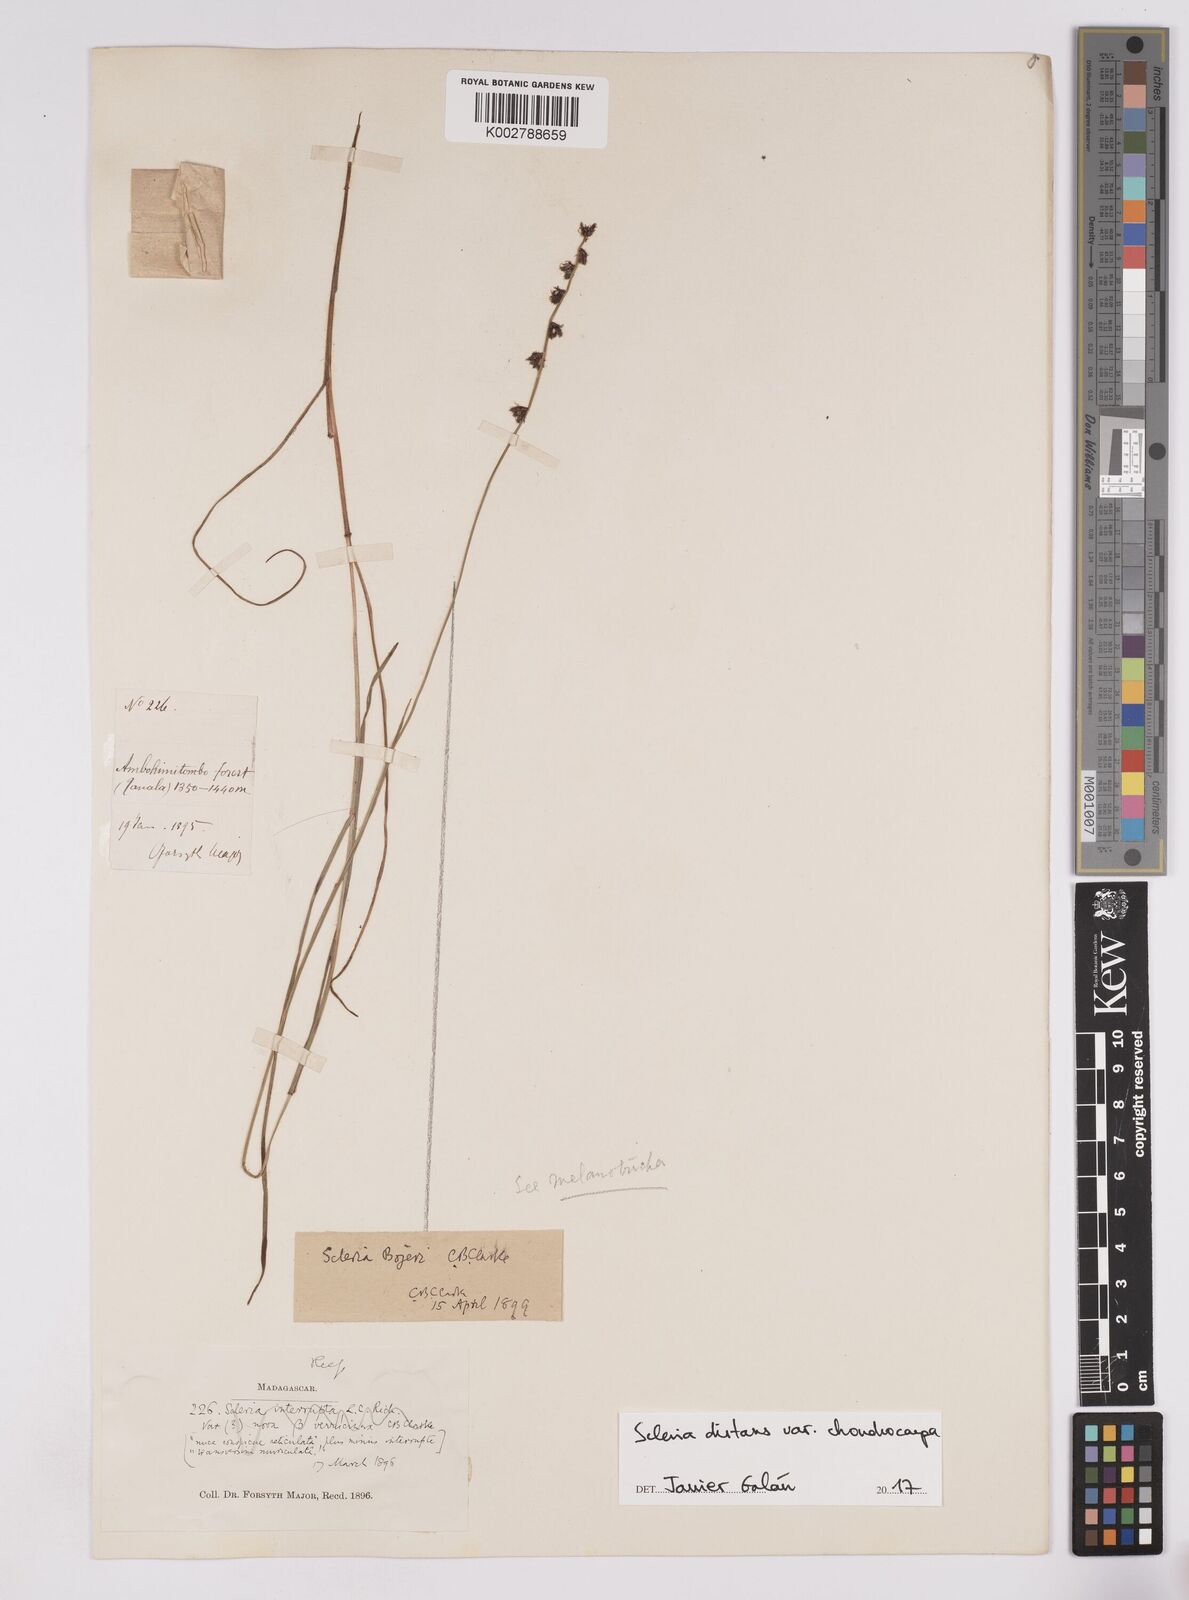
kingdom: Plantae
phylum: Tracheophyta
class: Liliopsida
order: Poales
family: Cyperaceae
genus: Scleria
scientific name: Scleria distans
